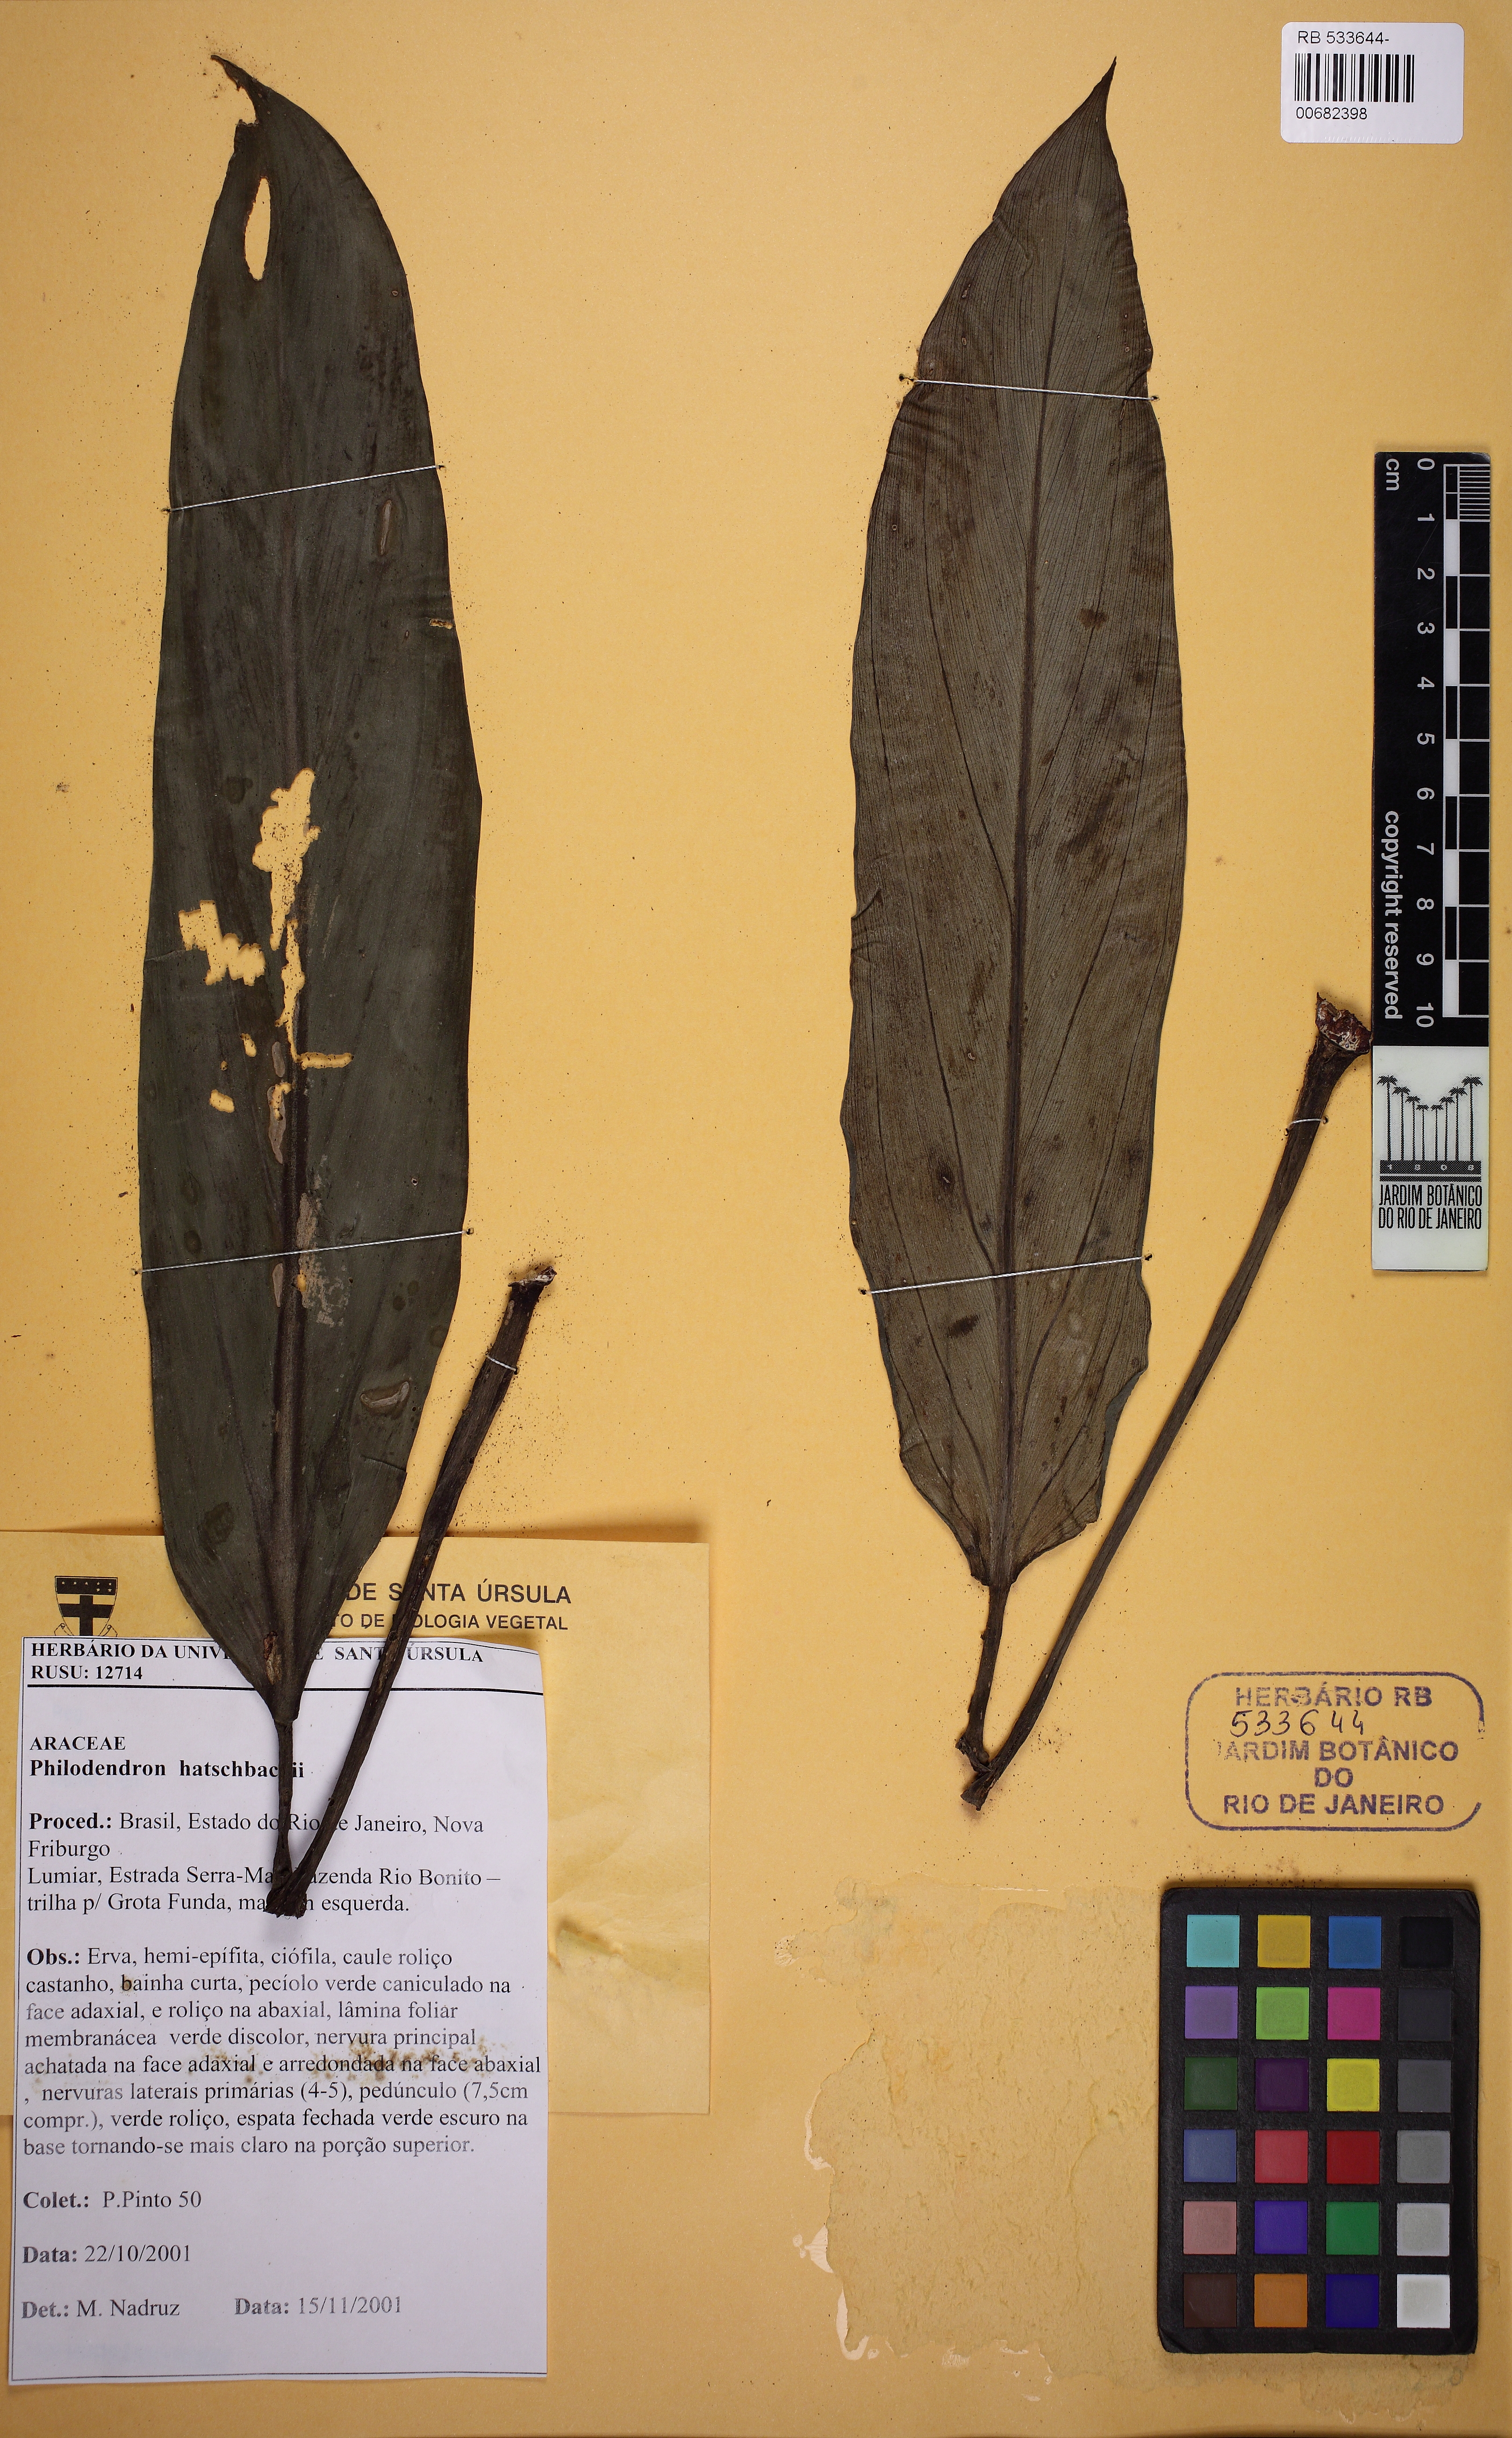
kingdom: Plantae
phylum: Tracheophyta
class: Liliopsida
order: Alismatales
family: Araceae
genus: Philodendron
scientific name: Philodendron hatschbachii
